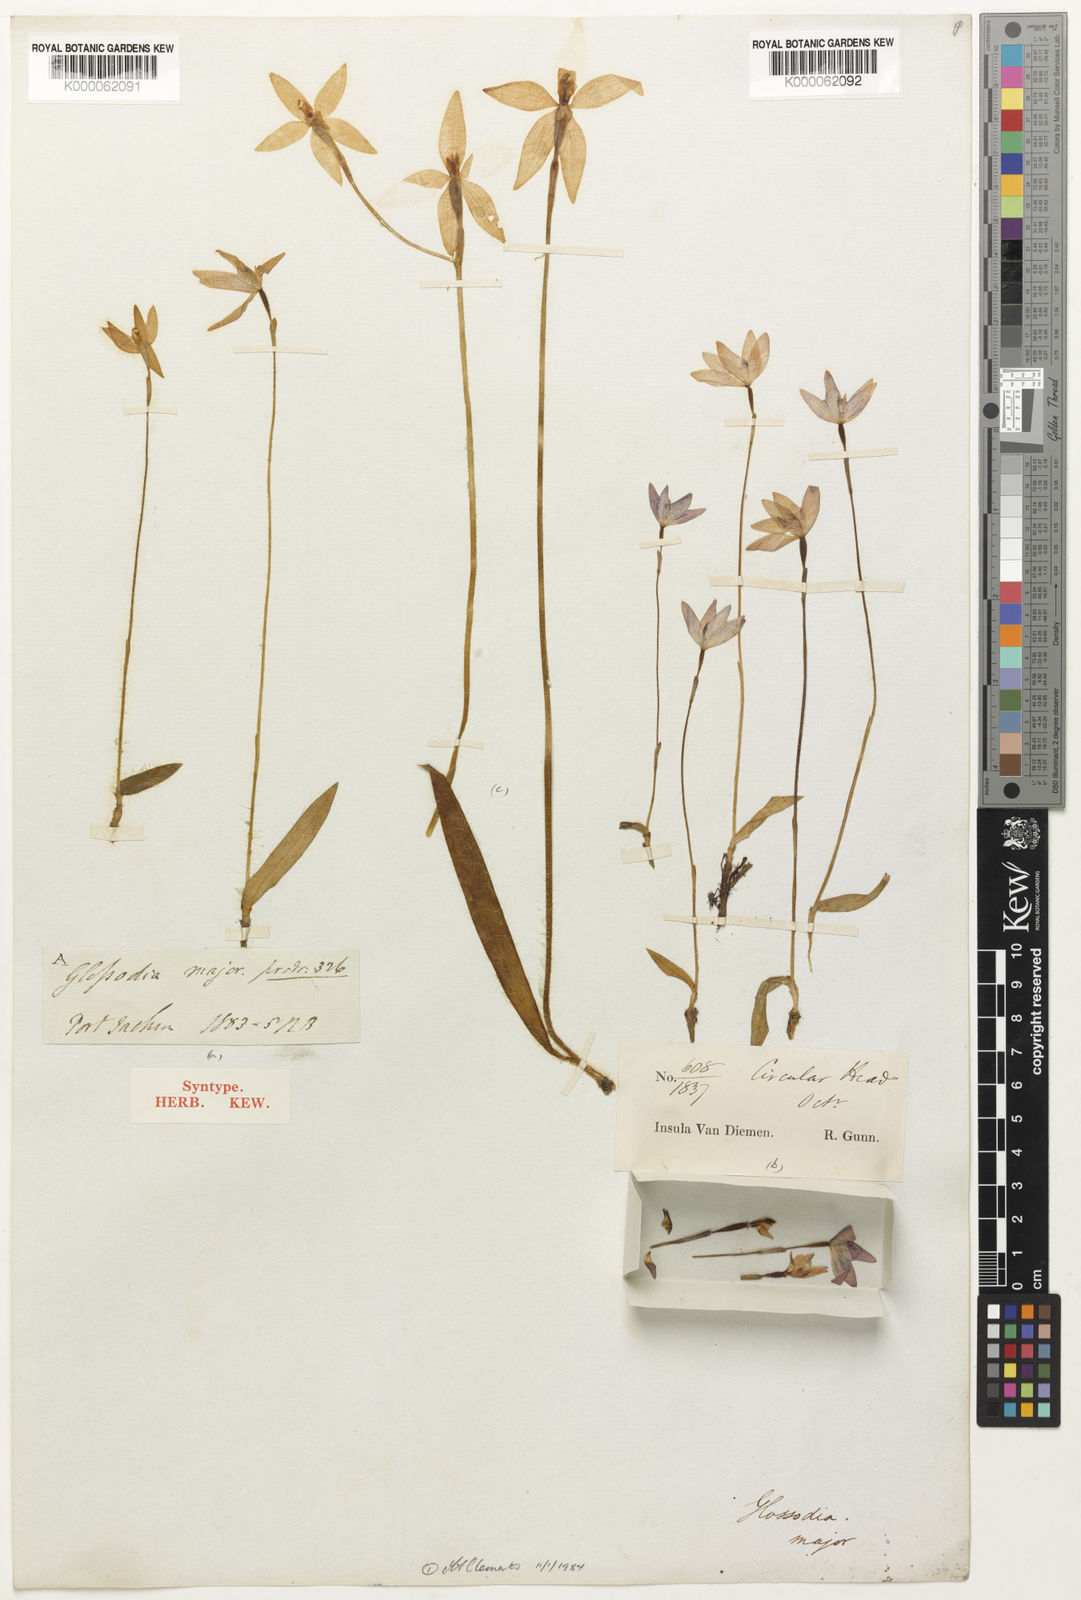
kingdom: Plantae
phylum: Tracheophyta
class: Liliopsida
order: Asparagales
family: Orchidaceae
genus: Caladenia
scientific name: Caladenia major
